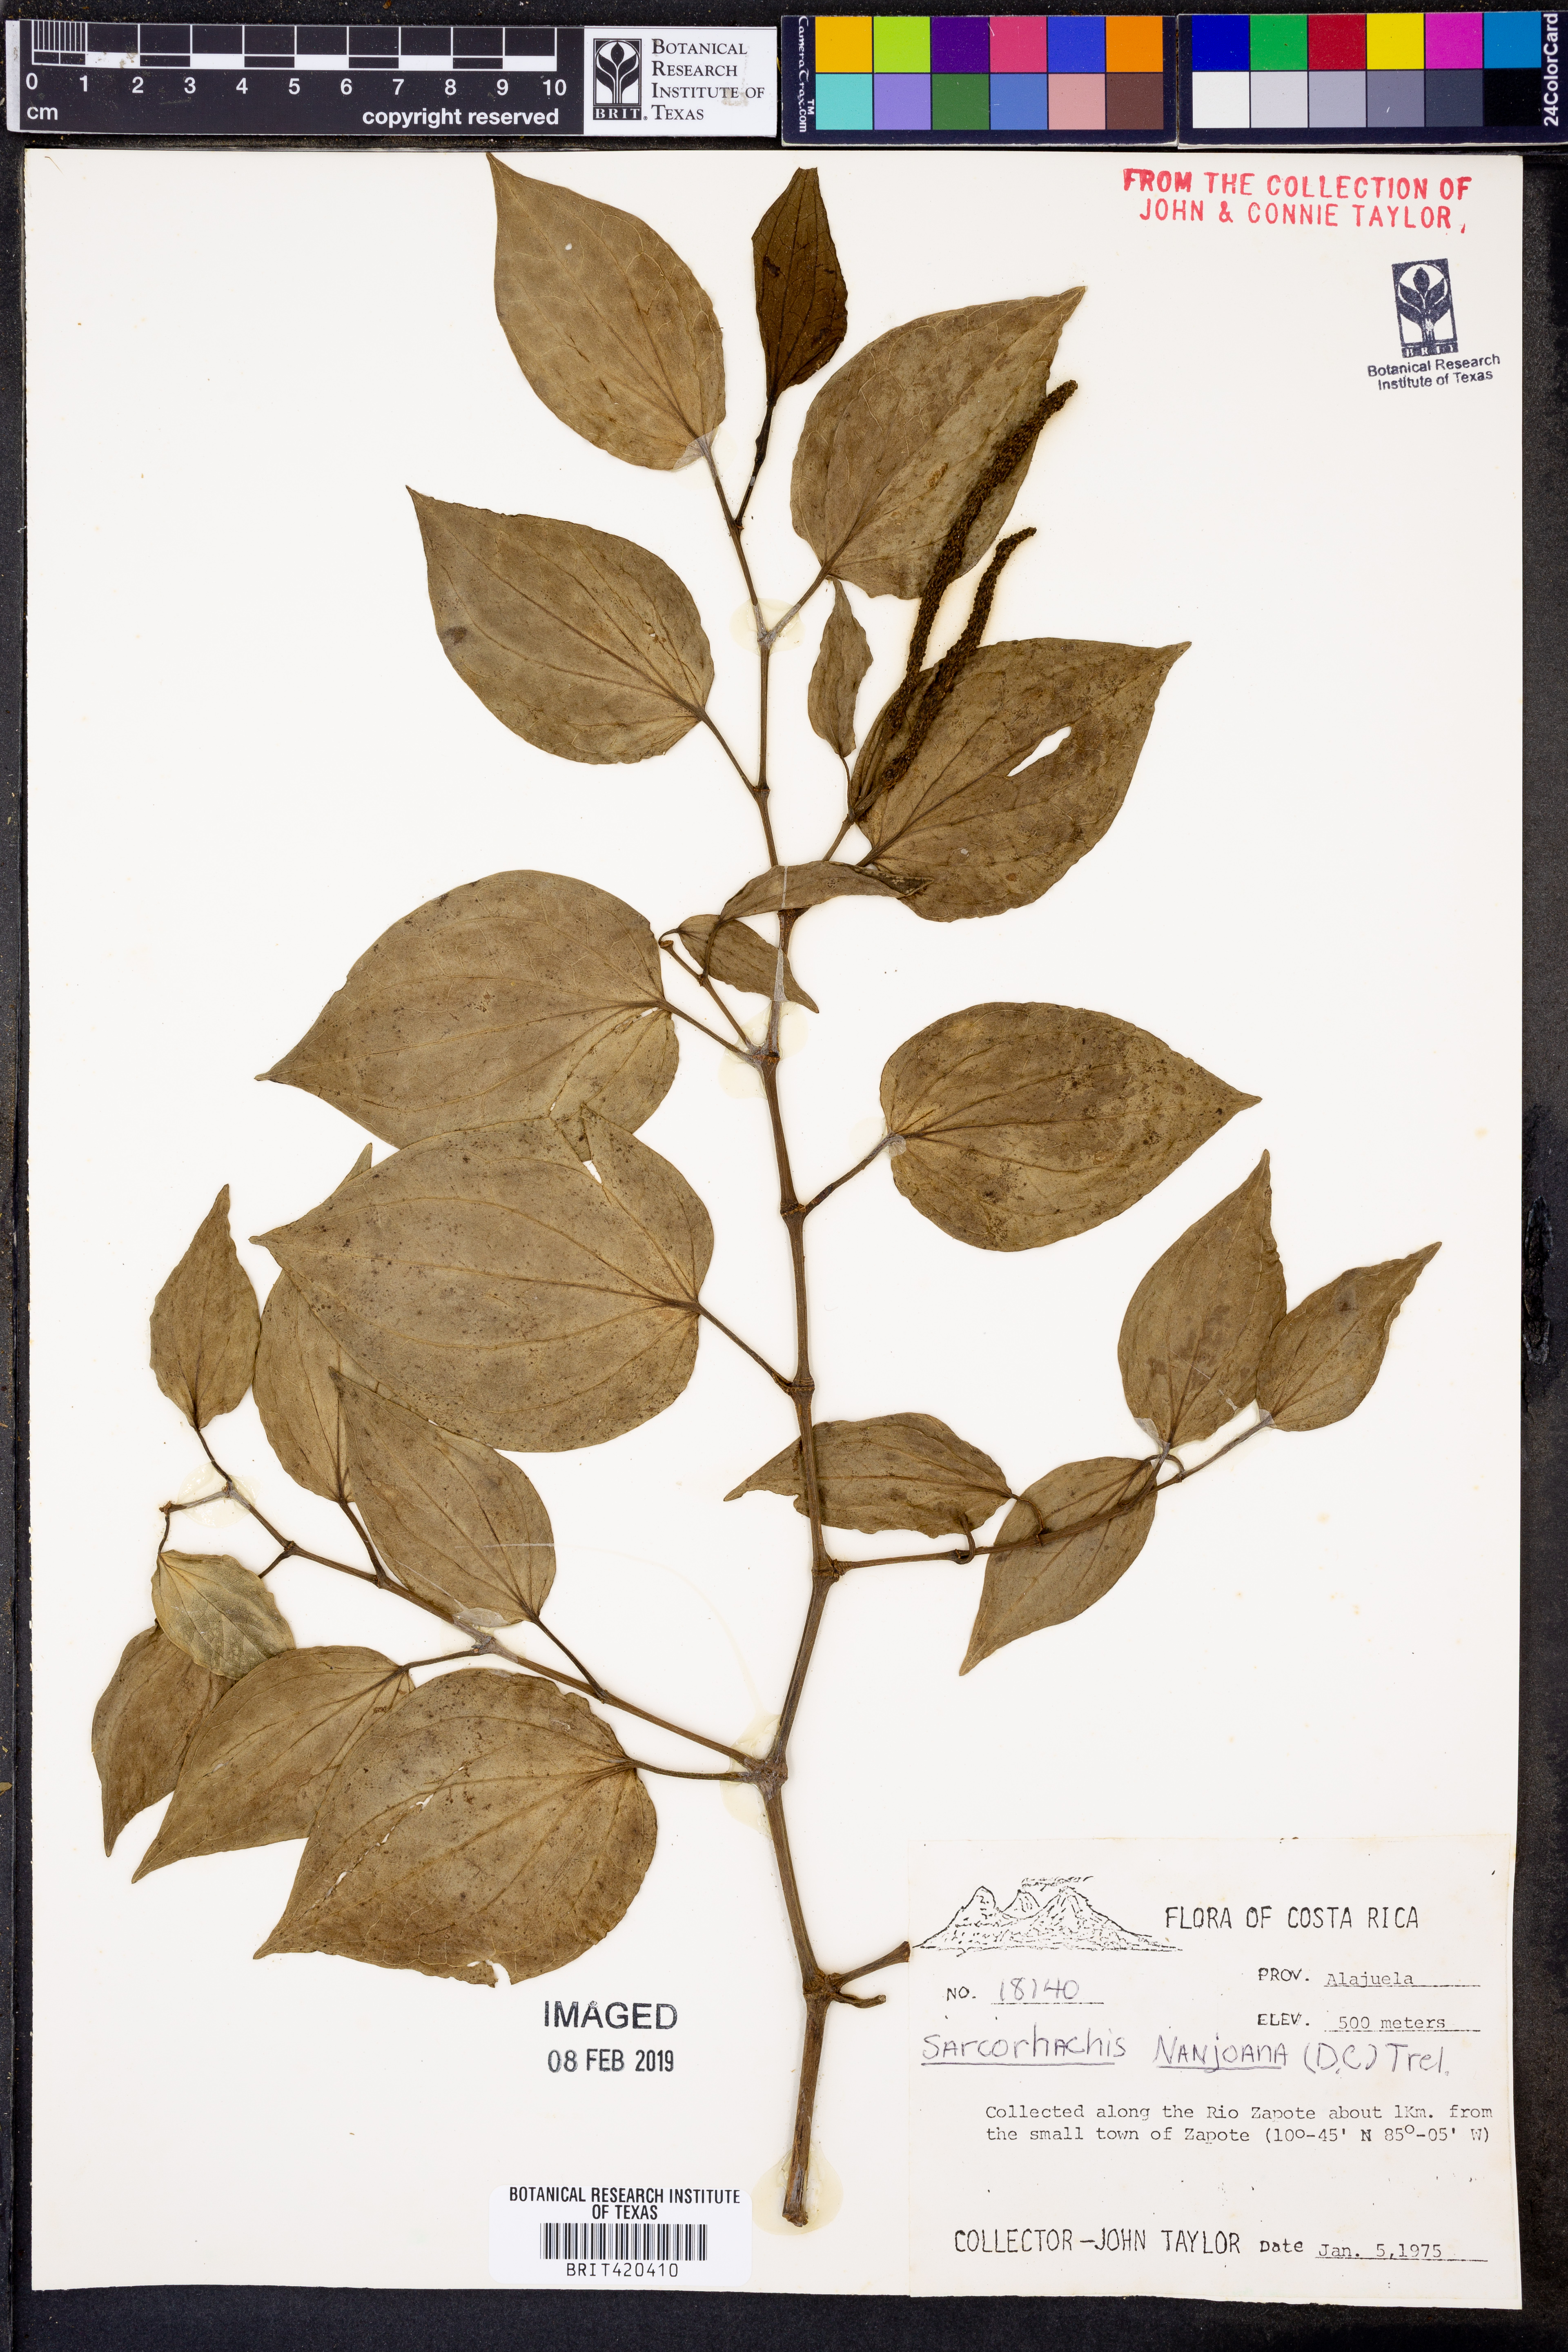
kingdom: Plantae
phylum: Tracheophyta
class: Magnoliopsida
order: Piperales
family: Piperaceae
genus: Manekia
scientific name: Manekia naranjoana
